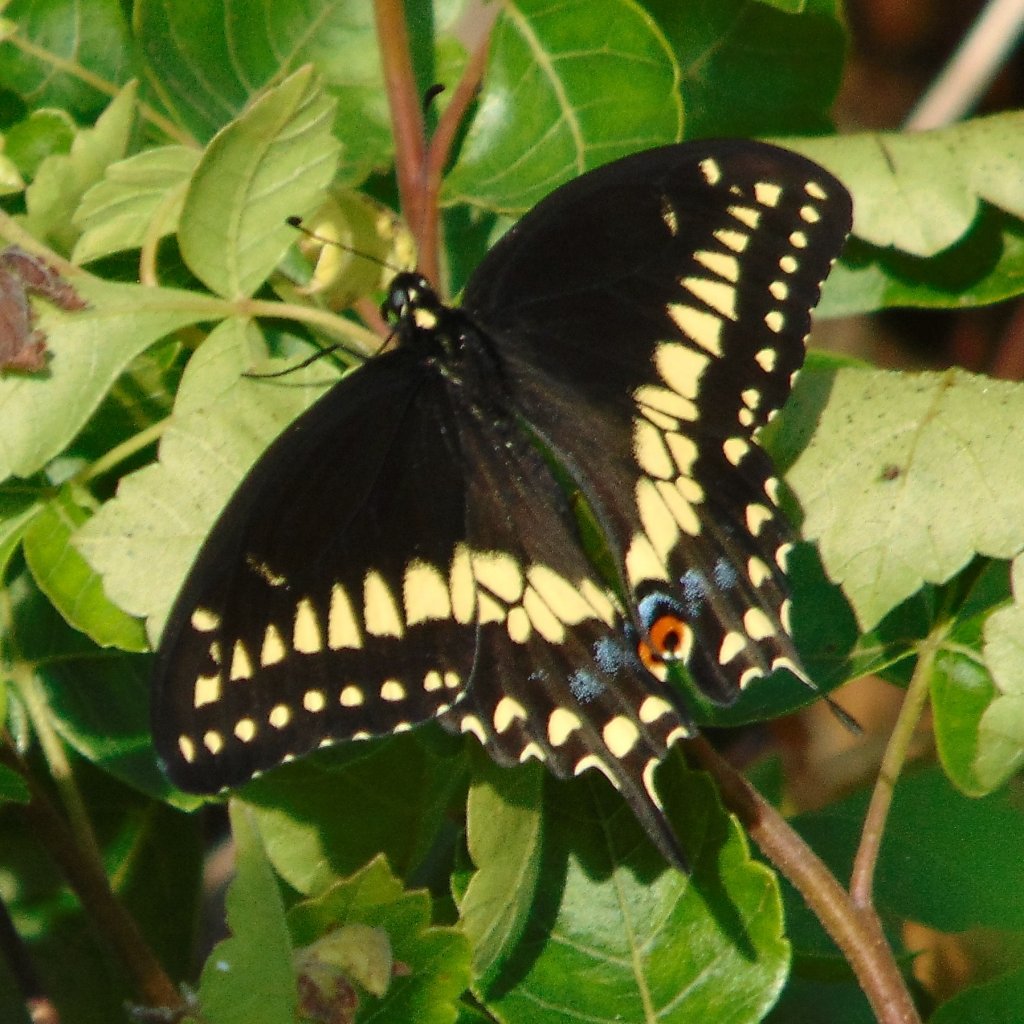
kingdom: Animalia
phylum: Arthropoda
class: Insecta
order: Lepidoptera
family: Papilionidae
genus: Papilio
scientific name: Papilio polyxenes
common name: Black Swallowtail
